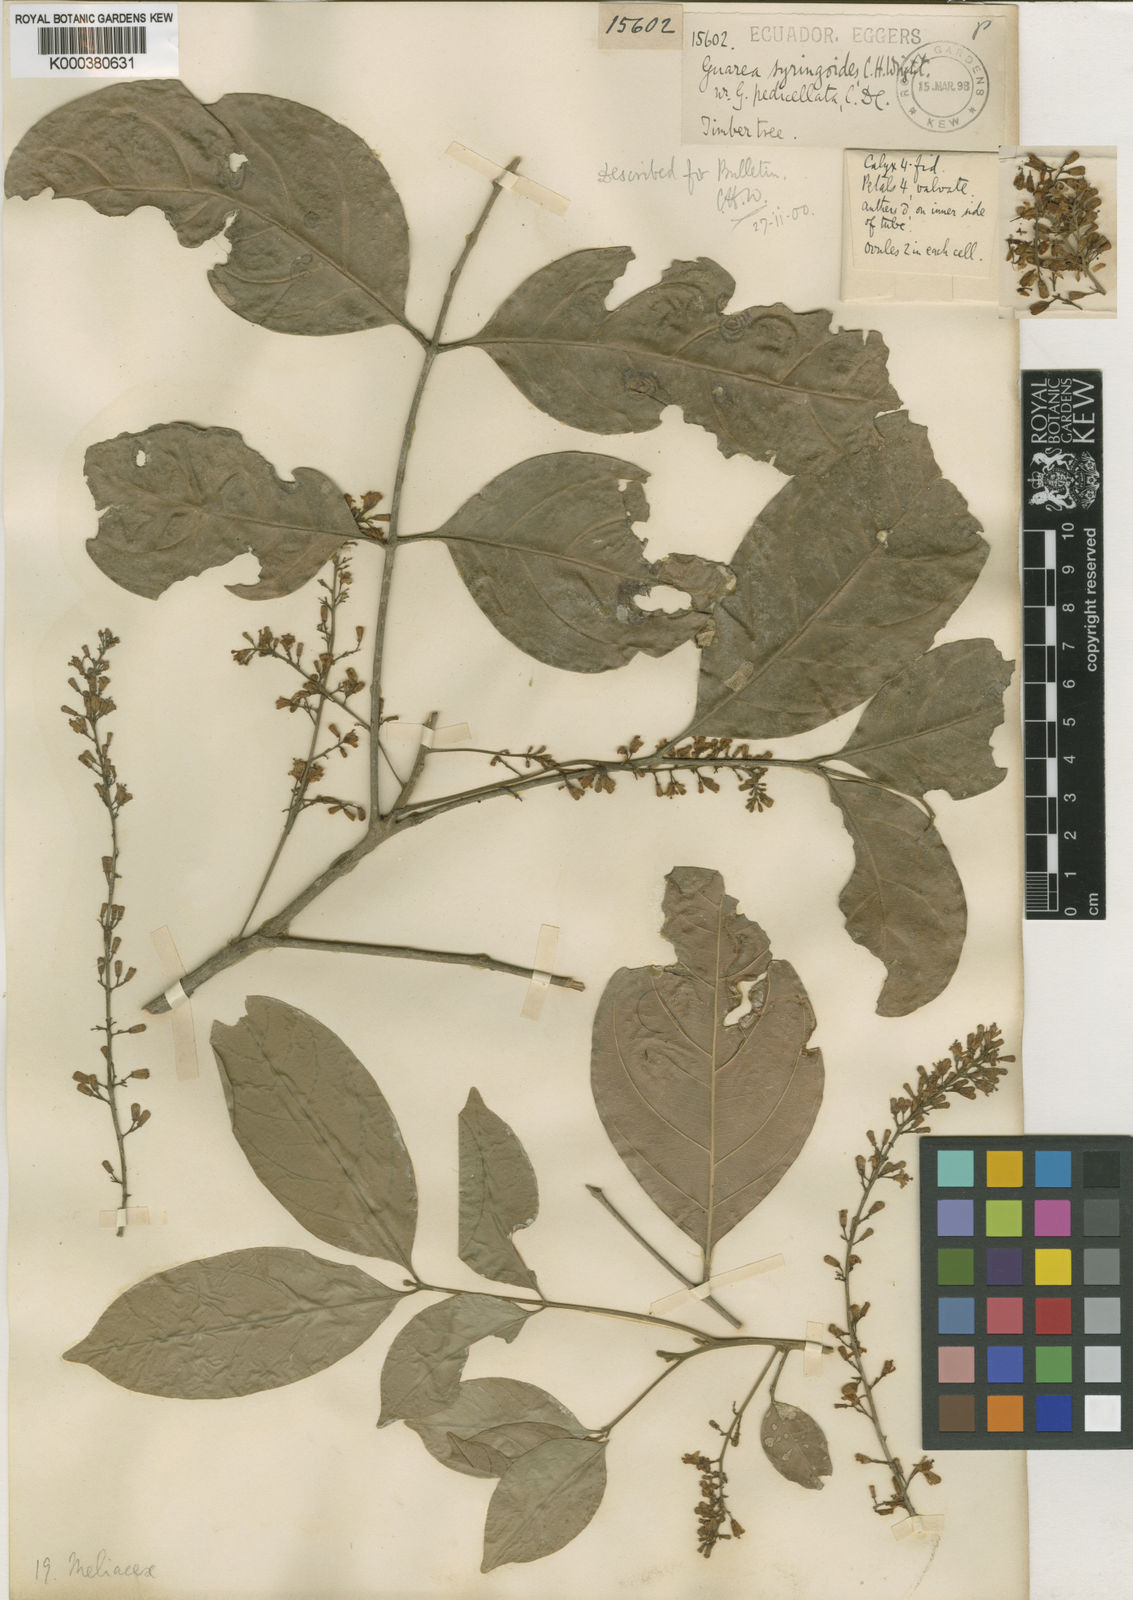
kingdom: Plantae
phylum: Tracheophyta
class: Magnoliopsida
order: Sapindales
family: Meliaceae
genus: Guarea
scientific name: Guarea glabra
